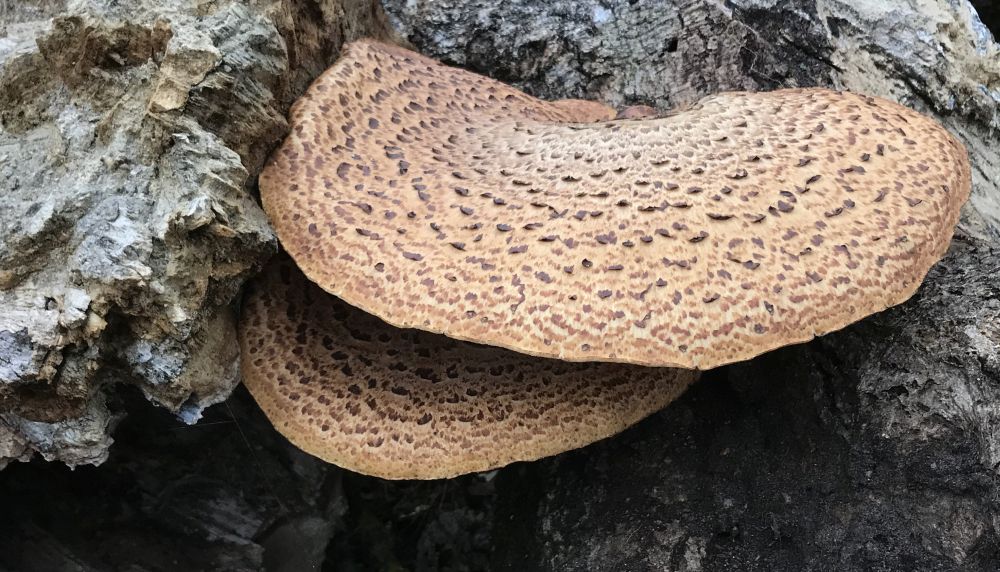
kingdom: Fungi
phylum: Basidiomycota
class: Agaricomycetes
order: Polyporales
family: Polyporaceae
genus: Cerioporus
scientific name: Cerioporus squamosus
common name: skællet stilkporesvamp
